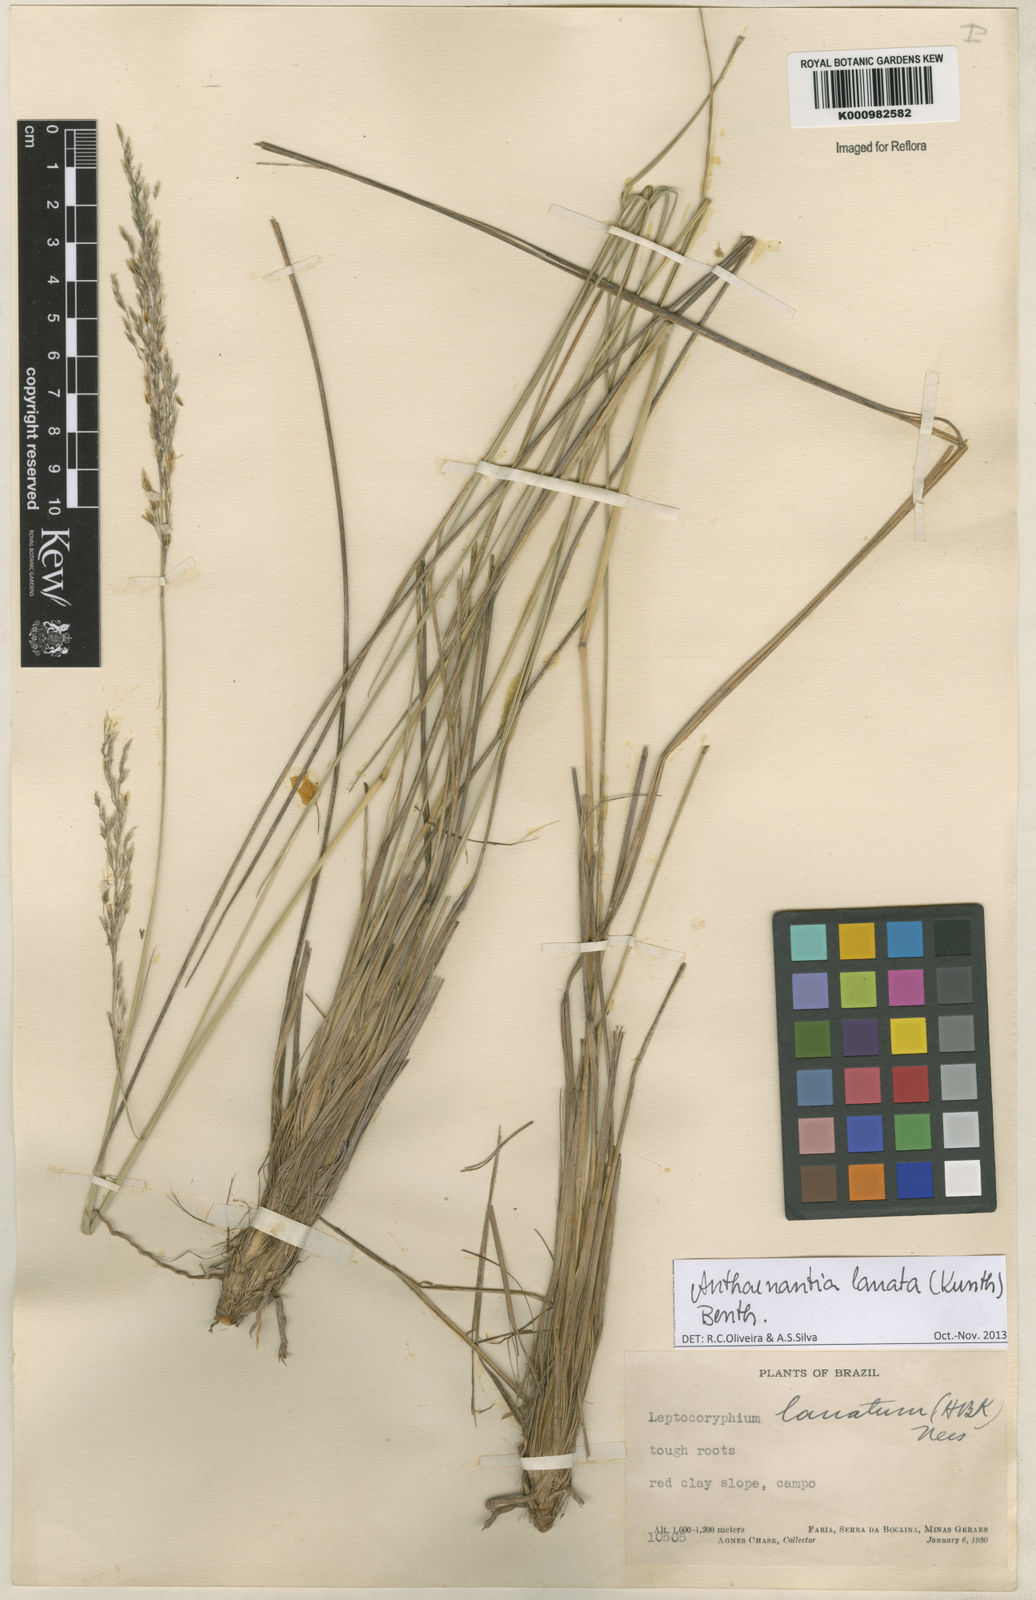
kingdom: Plantae
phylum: Tracheophyta
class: Liliopsida
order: Poales
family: Poaceae
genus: Anthenantia
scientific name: Anthenantia lanata
